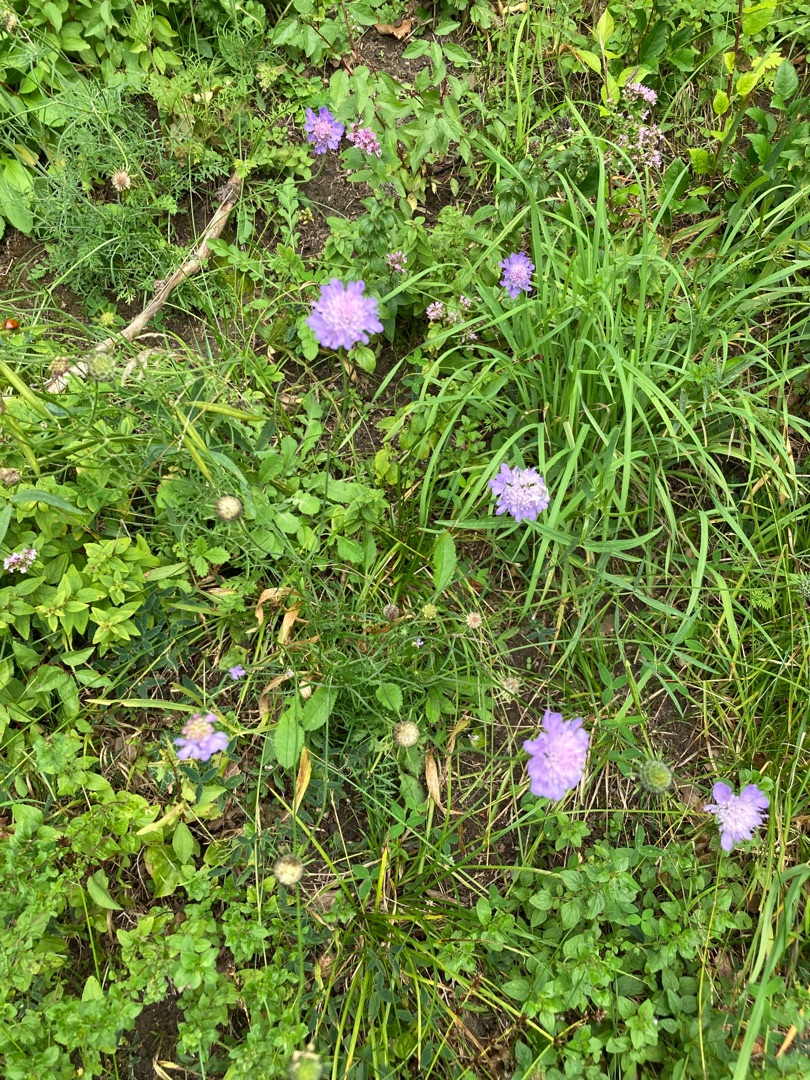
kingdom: Plantae
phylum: Tracheophyta
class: Magnoliopsida
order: Dipsacales
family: Caprifoliaceae
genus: Scabiosa
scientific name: Scabiosa columbaria
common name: Due-skabiose
